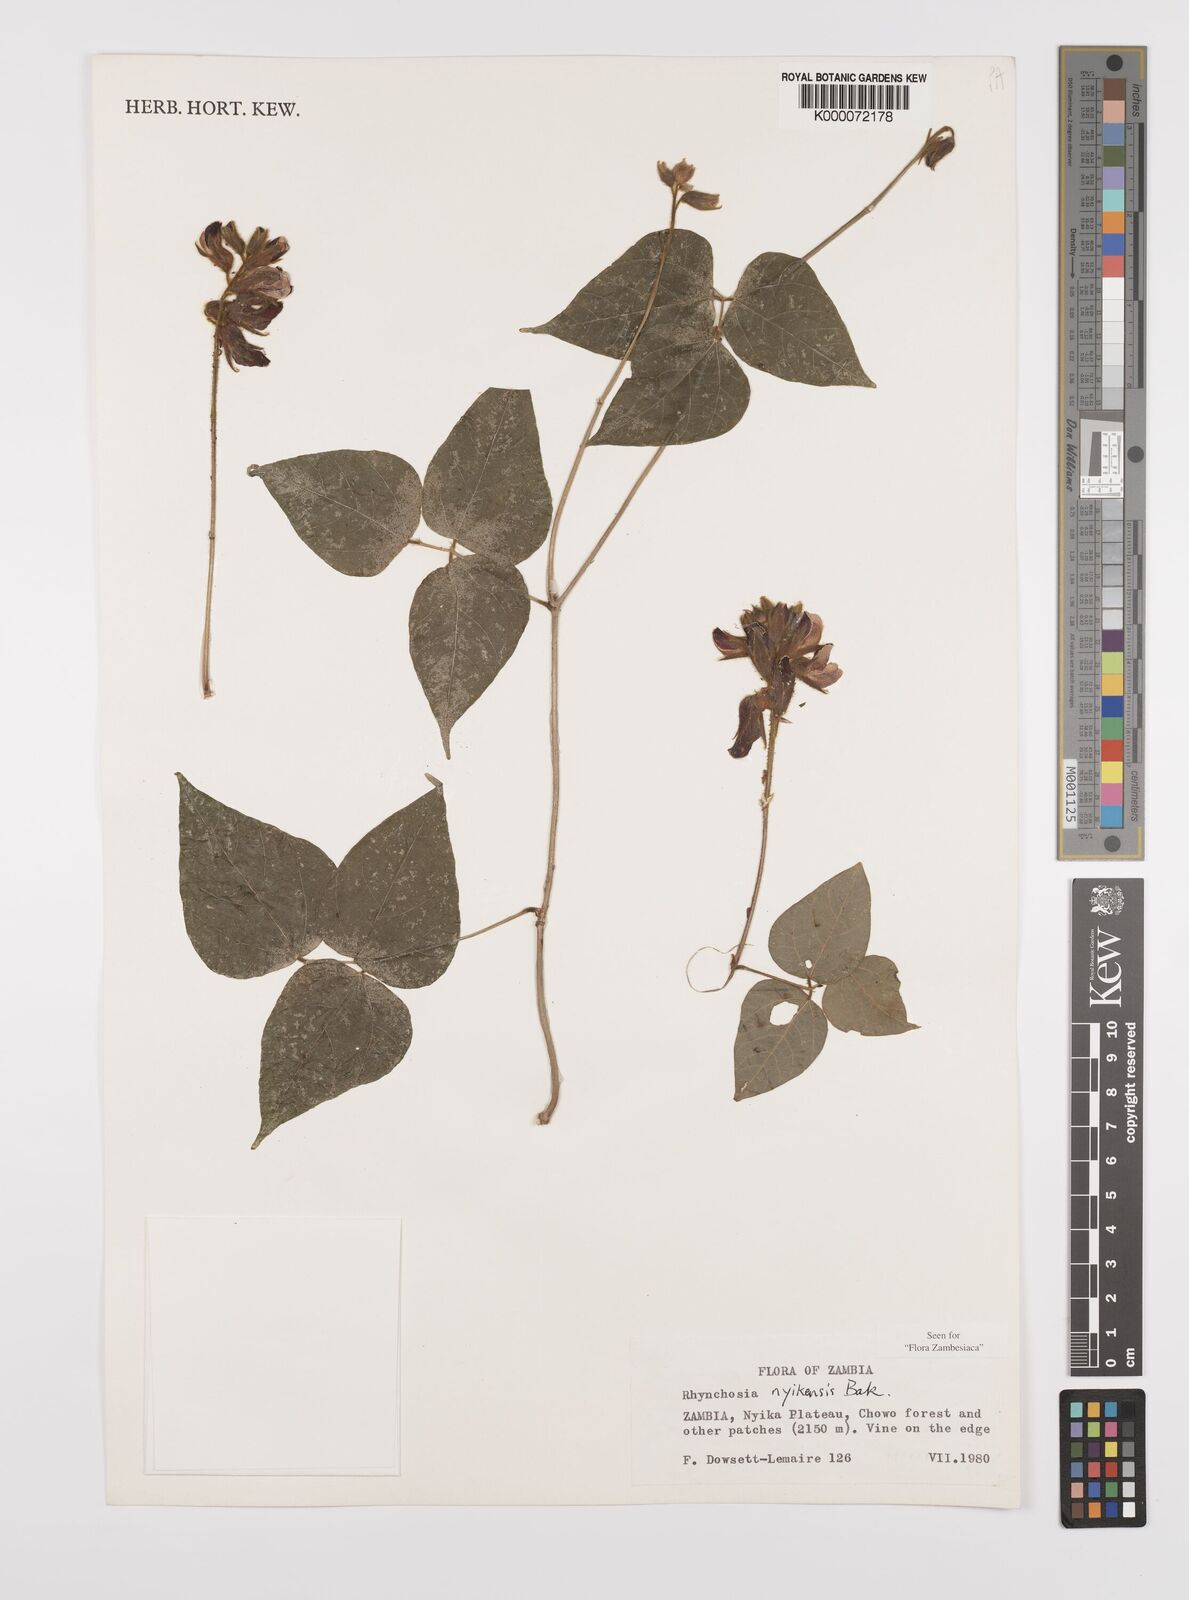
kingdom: Plantae
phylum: Tracheophyta
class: Magnoliopsida
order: Fabales
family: Fabaceae
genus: Rhynchosia
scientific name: Rhynchosia nyikensis
